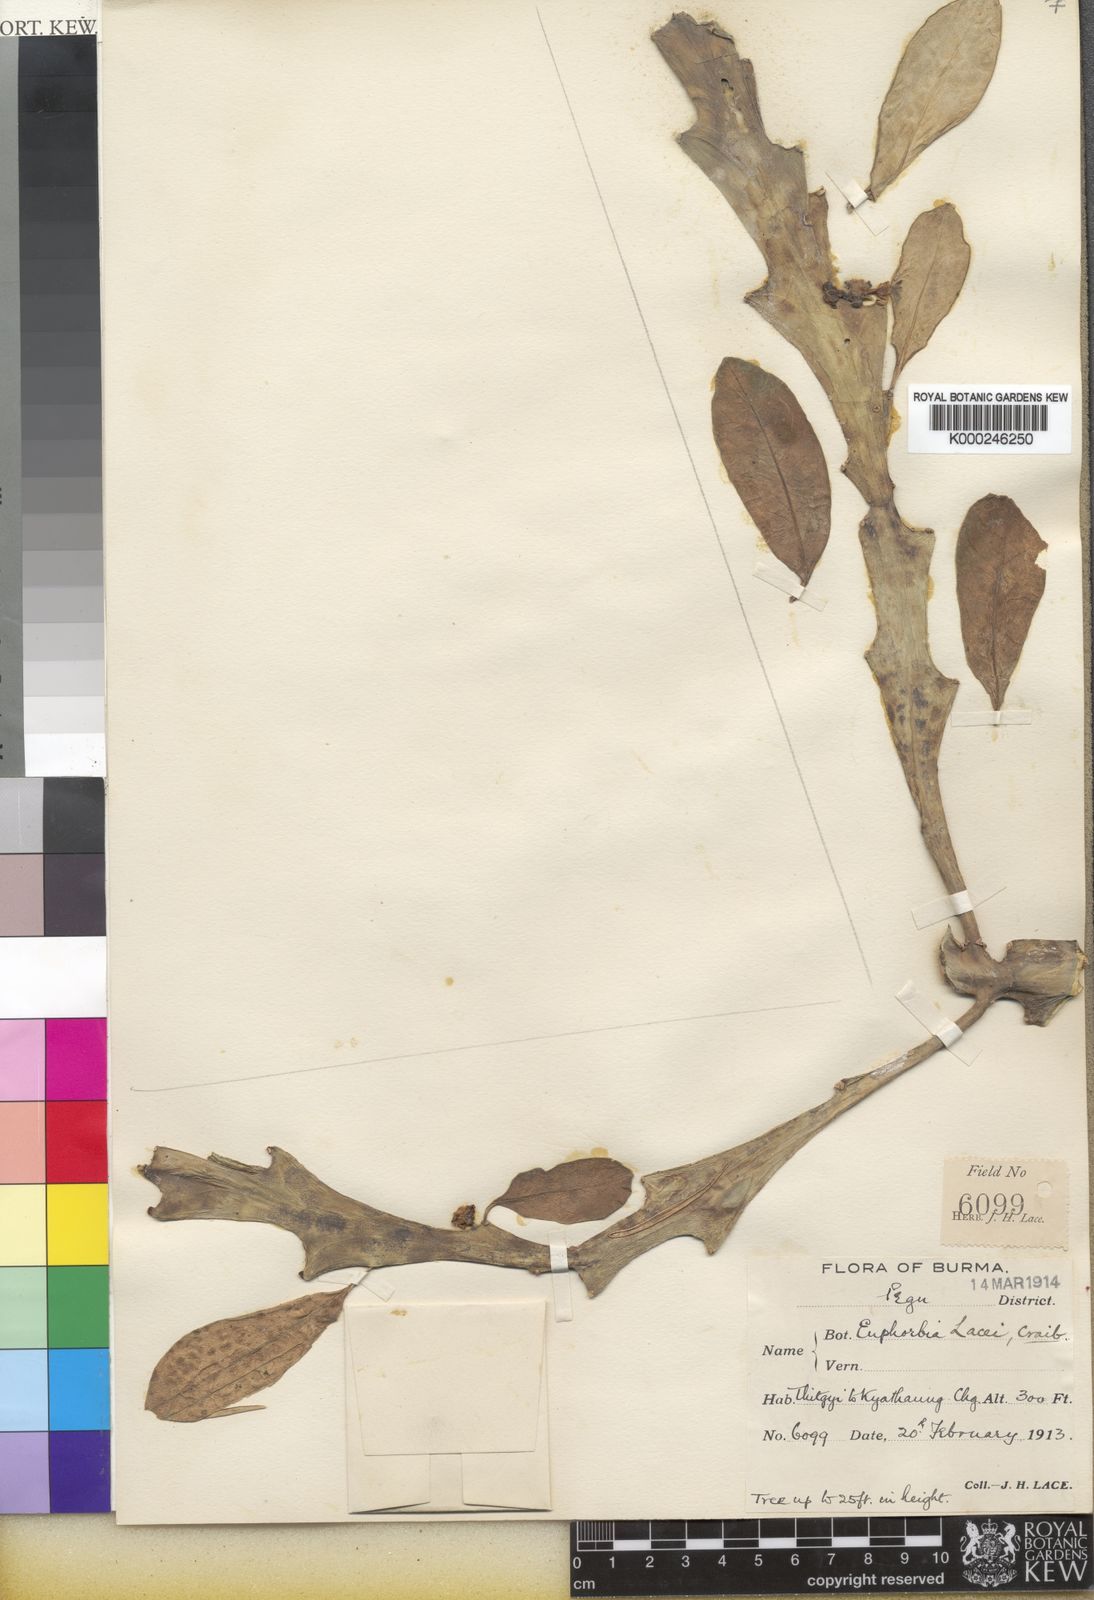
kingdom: Plantae
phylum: Tracheophyta
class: Magnoliopsida
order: Malpighiales
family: Euphorbiaceae
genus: Euphorbia
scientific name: Euphorbia lacei
